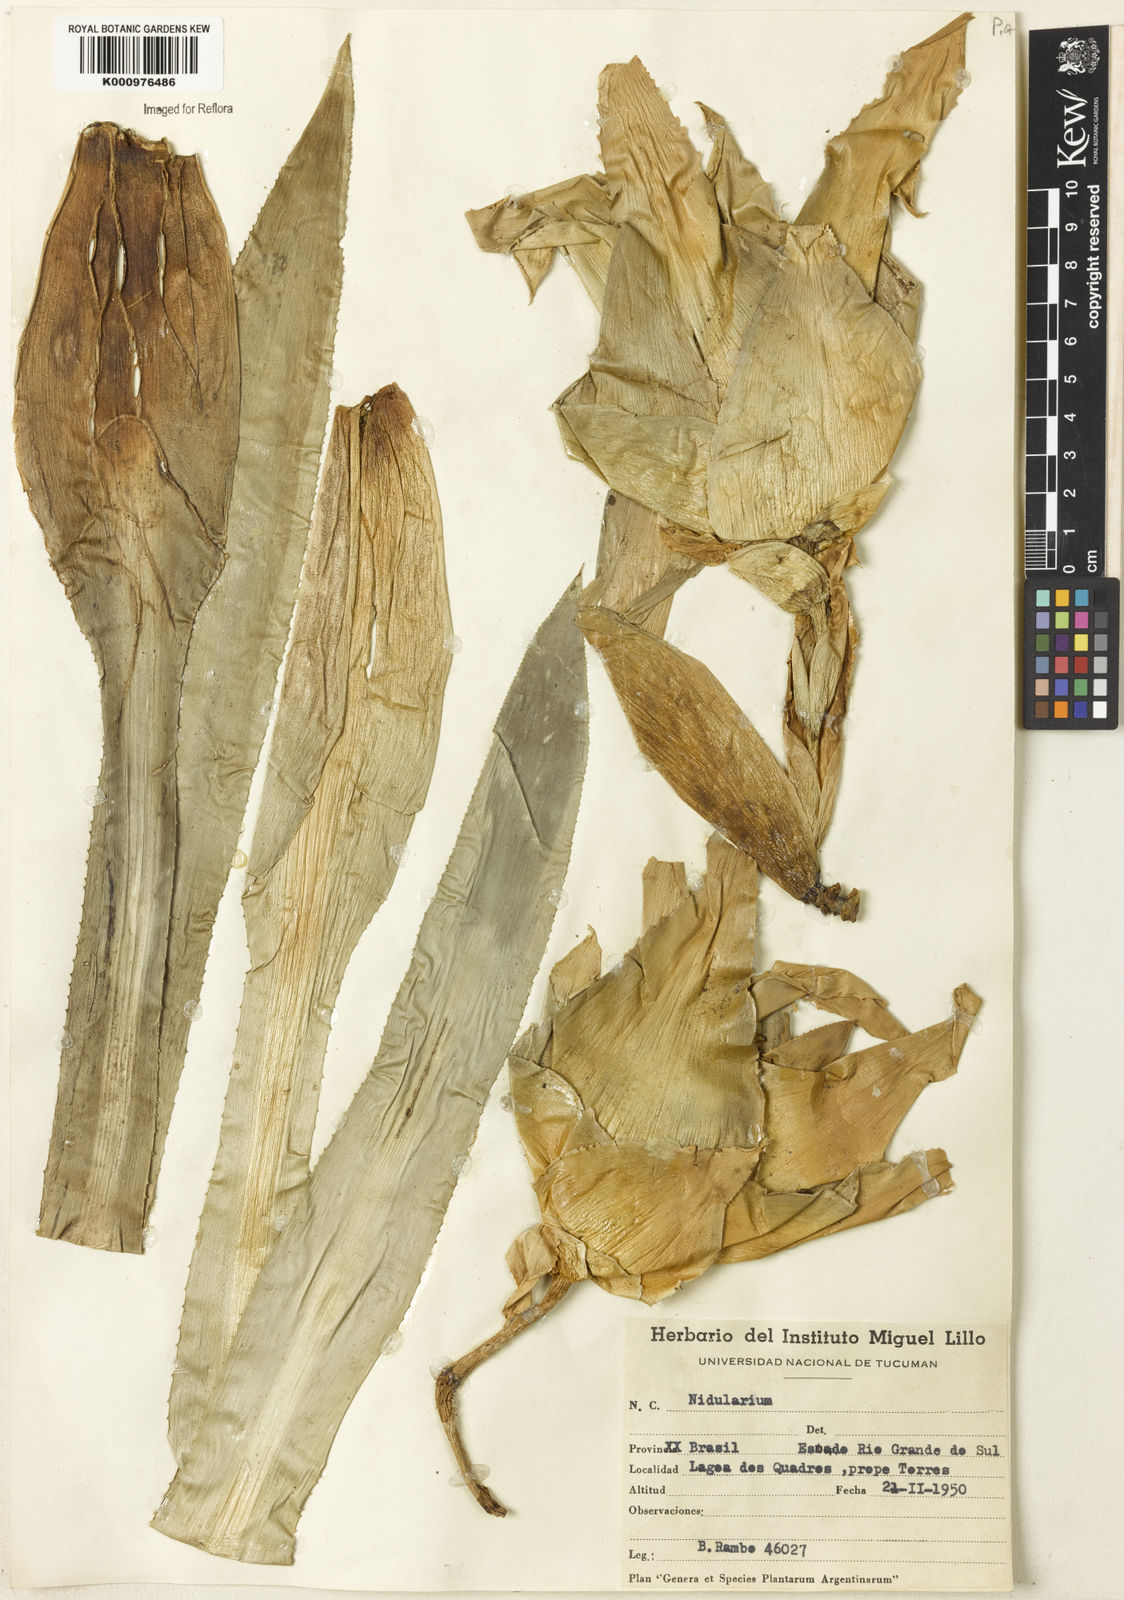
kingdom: Plantae
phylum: Tracheophyta
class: Liliopsida
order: Poales
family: Bromeliaceae
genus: Nidularium
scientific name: Nidularium
